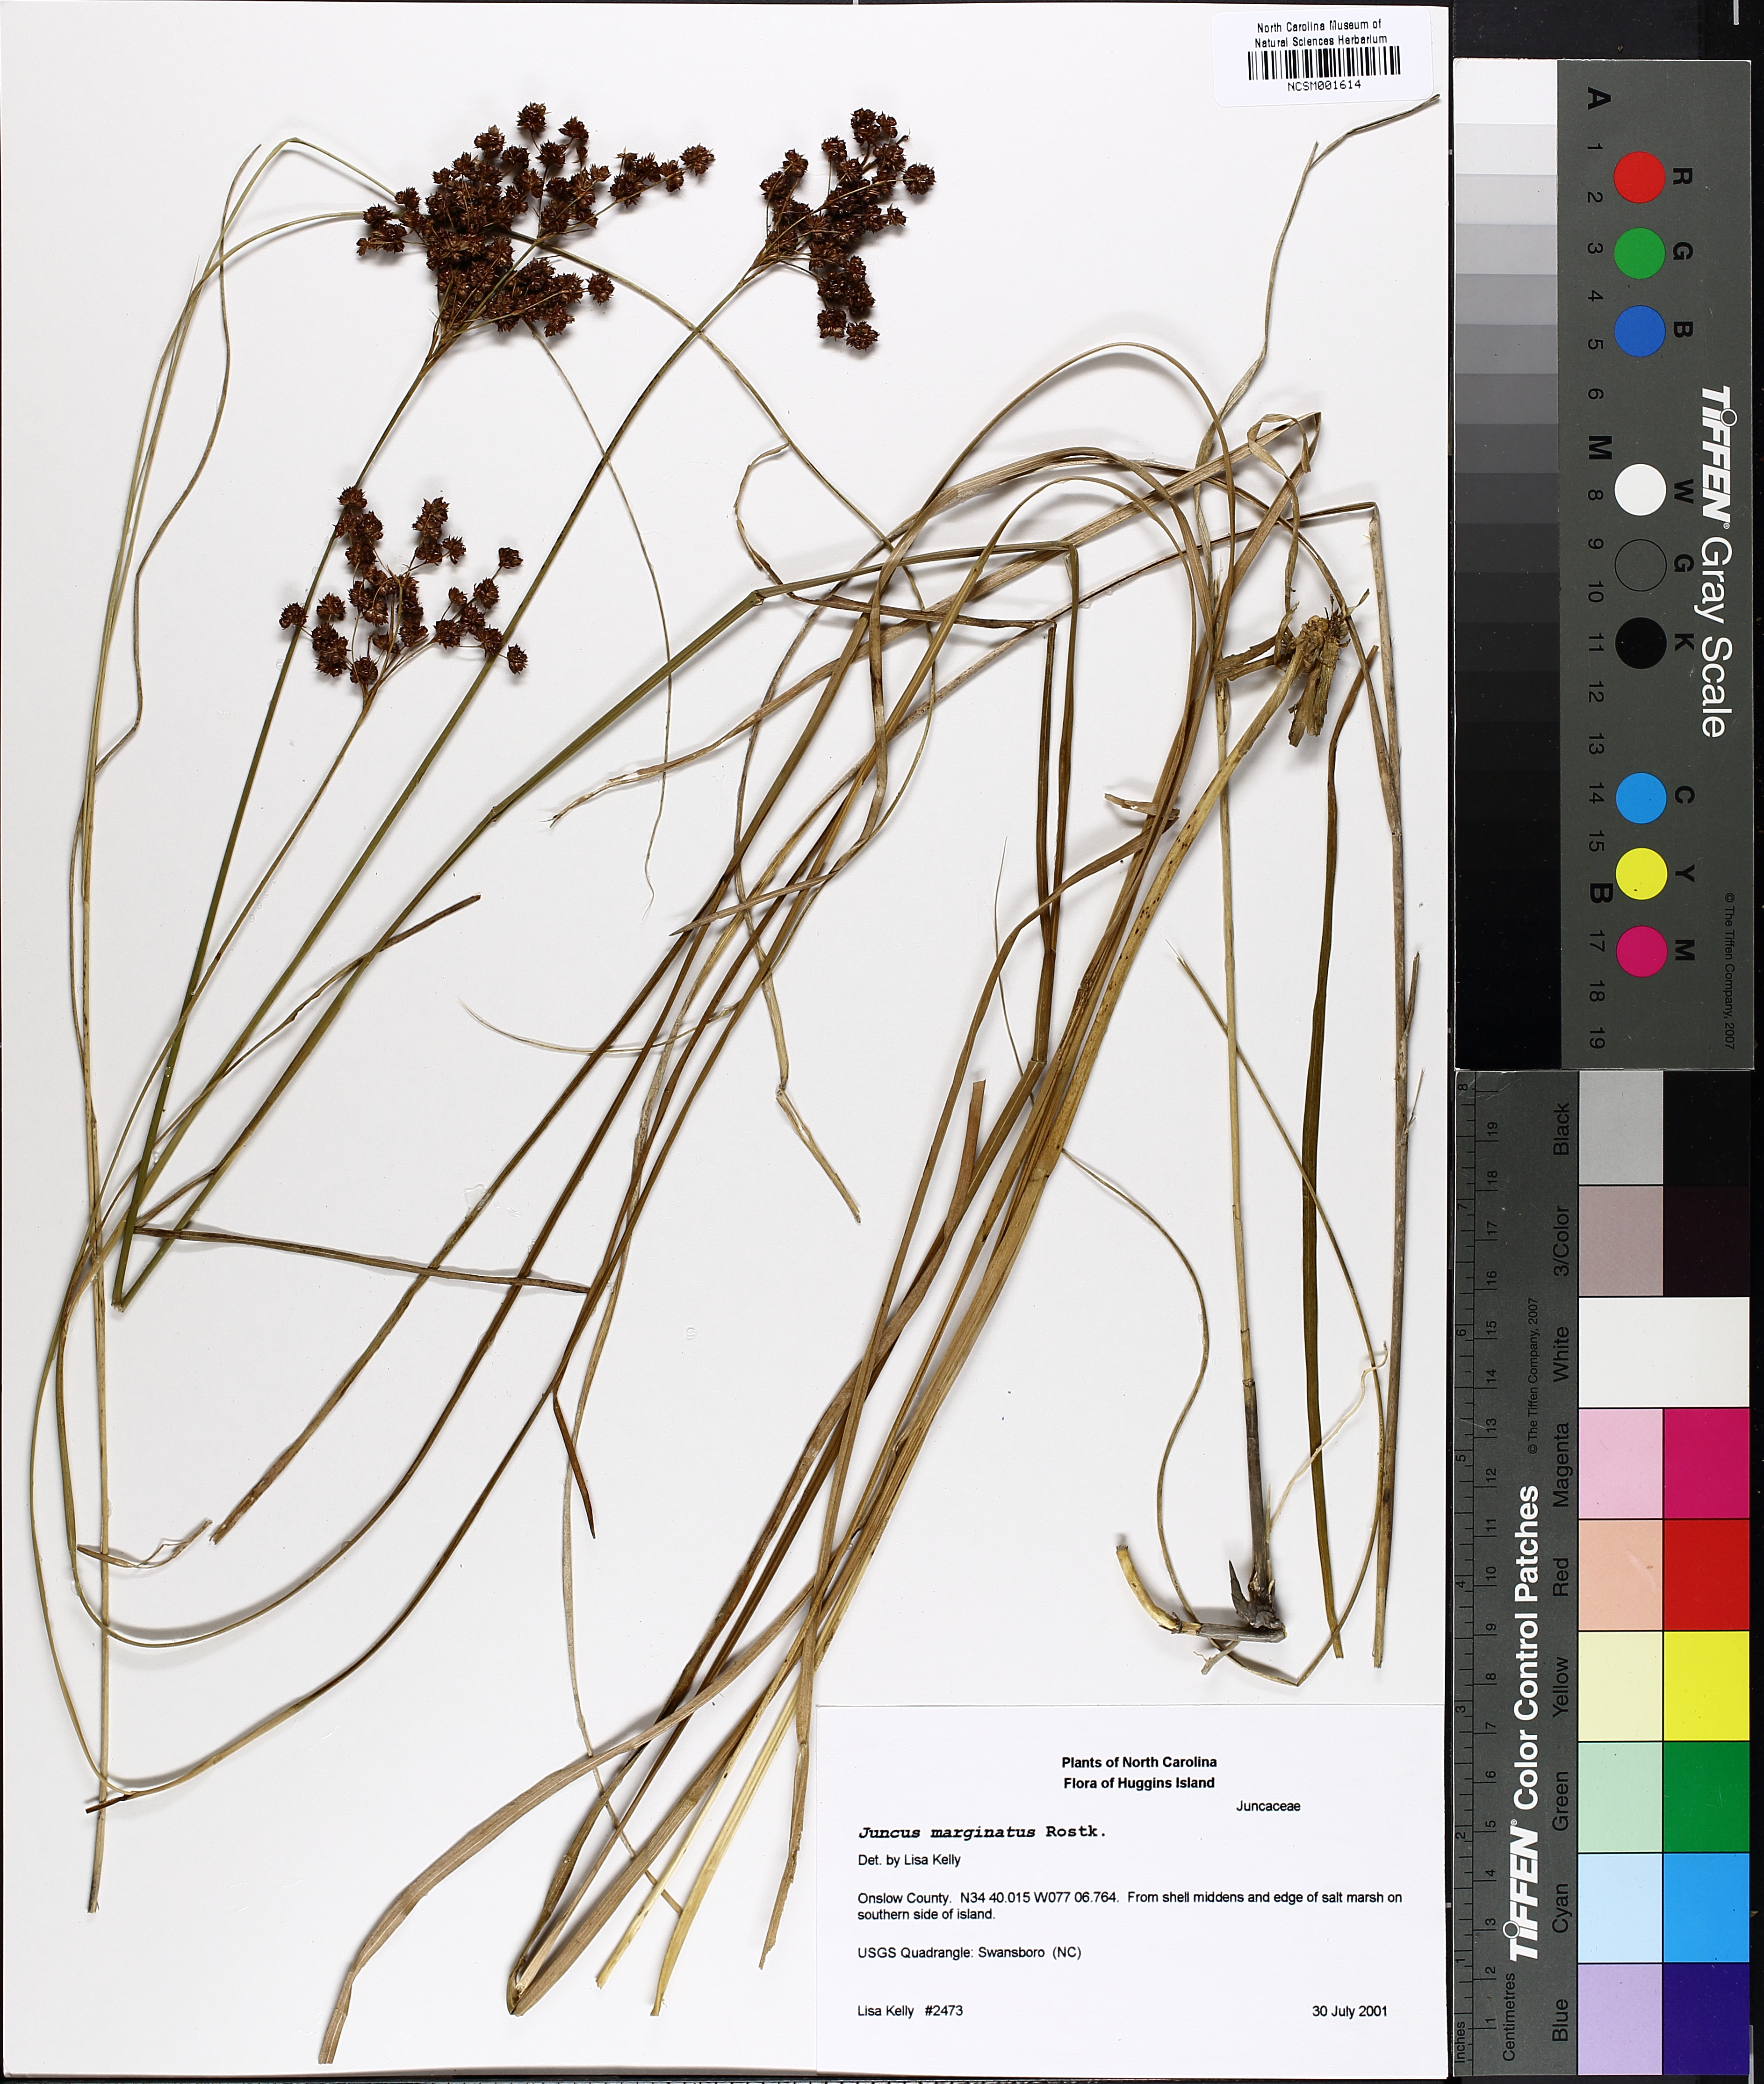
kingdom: Plantae
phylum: Tracheophyta
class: Liliopsida
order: Poales
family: Juncaceae
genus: Juncus
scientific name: Juncus marginatus
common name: Grass-leaf rush
